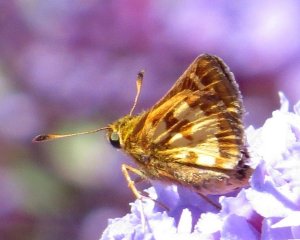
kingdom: Animalia
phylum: Arthropoda
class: Insecta
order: Lepidoptera
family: Hesperiidae
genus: Polites
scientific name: Polites coras
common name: Peck's Skipper
